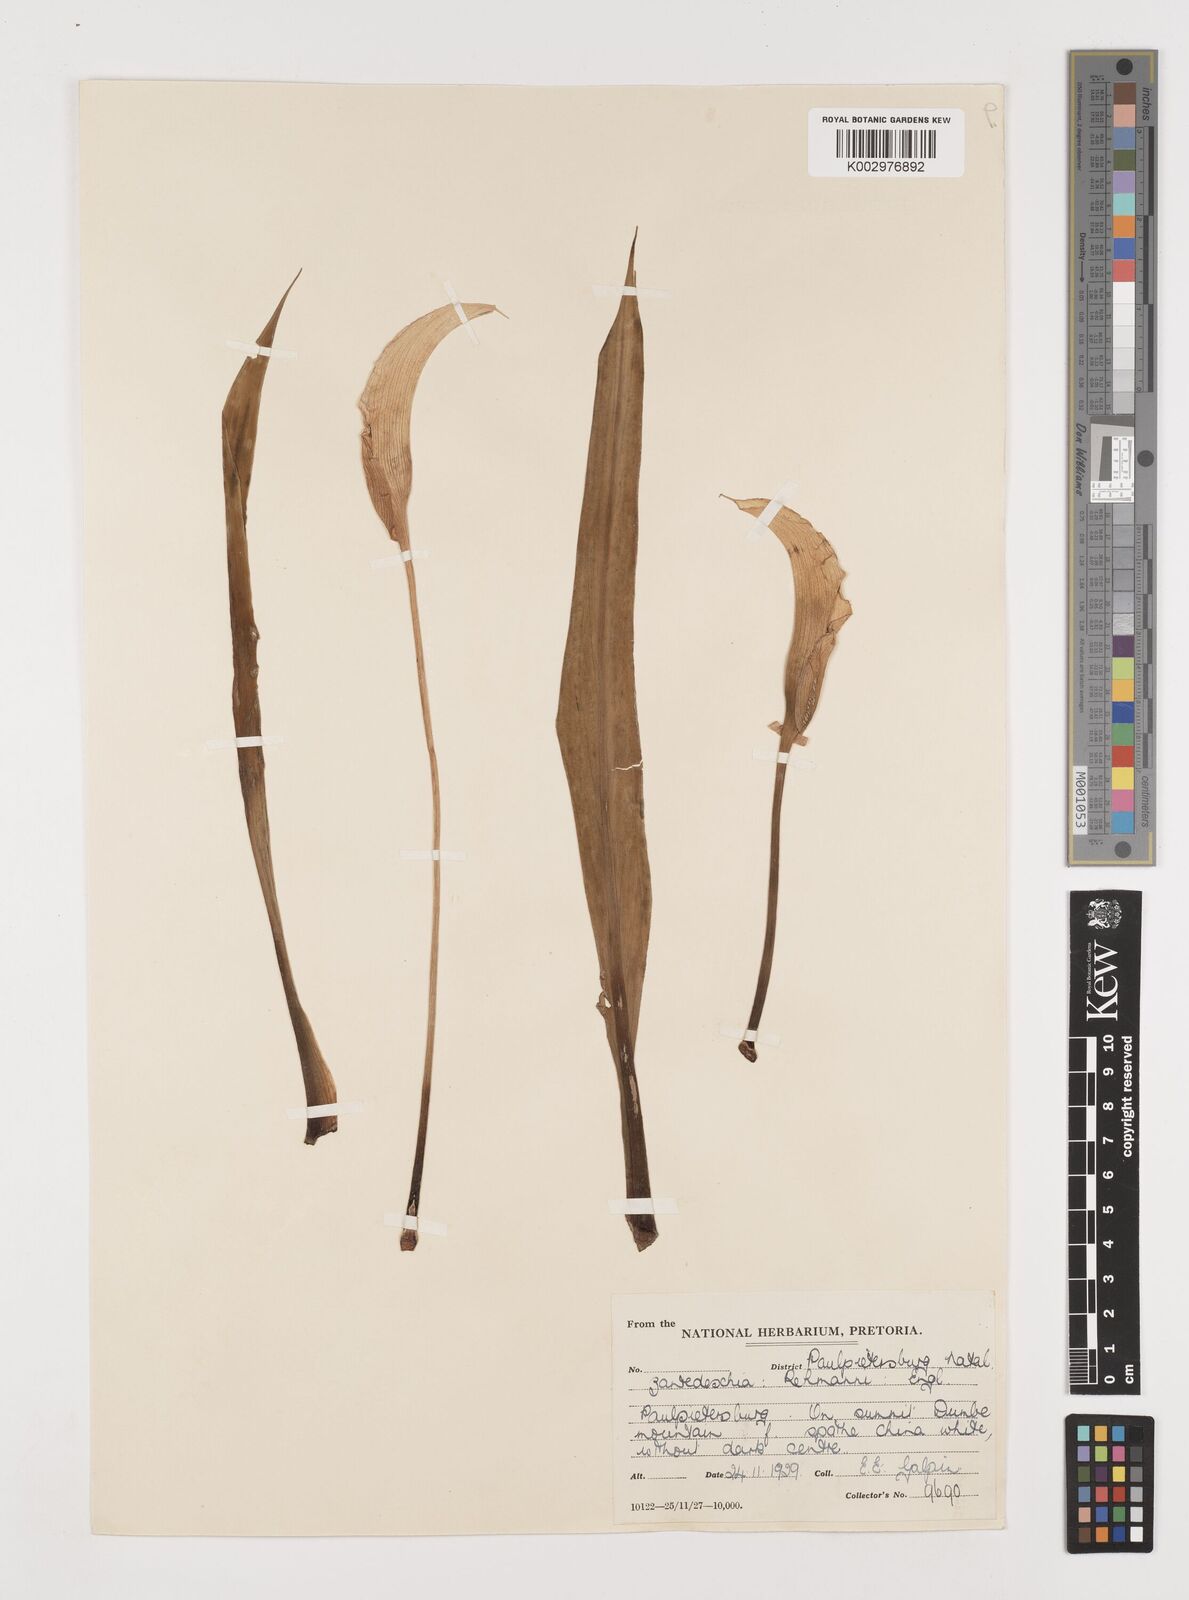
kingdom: Plantae
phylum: Tracheophyta
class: Liliopsida
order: Alismatales
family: Araceae
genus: Zantedeschia
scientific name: Zantedeschia rehmannii
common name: Red calla
